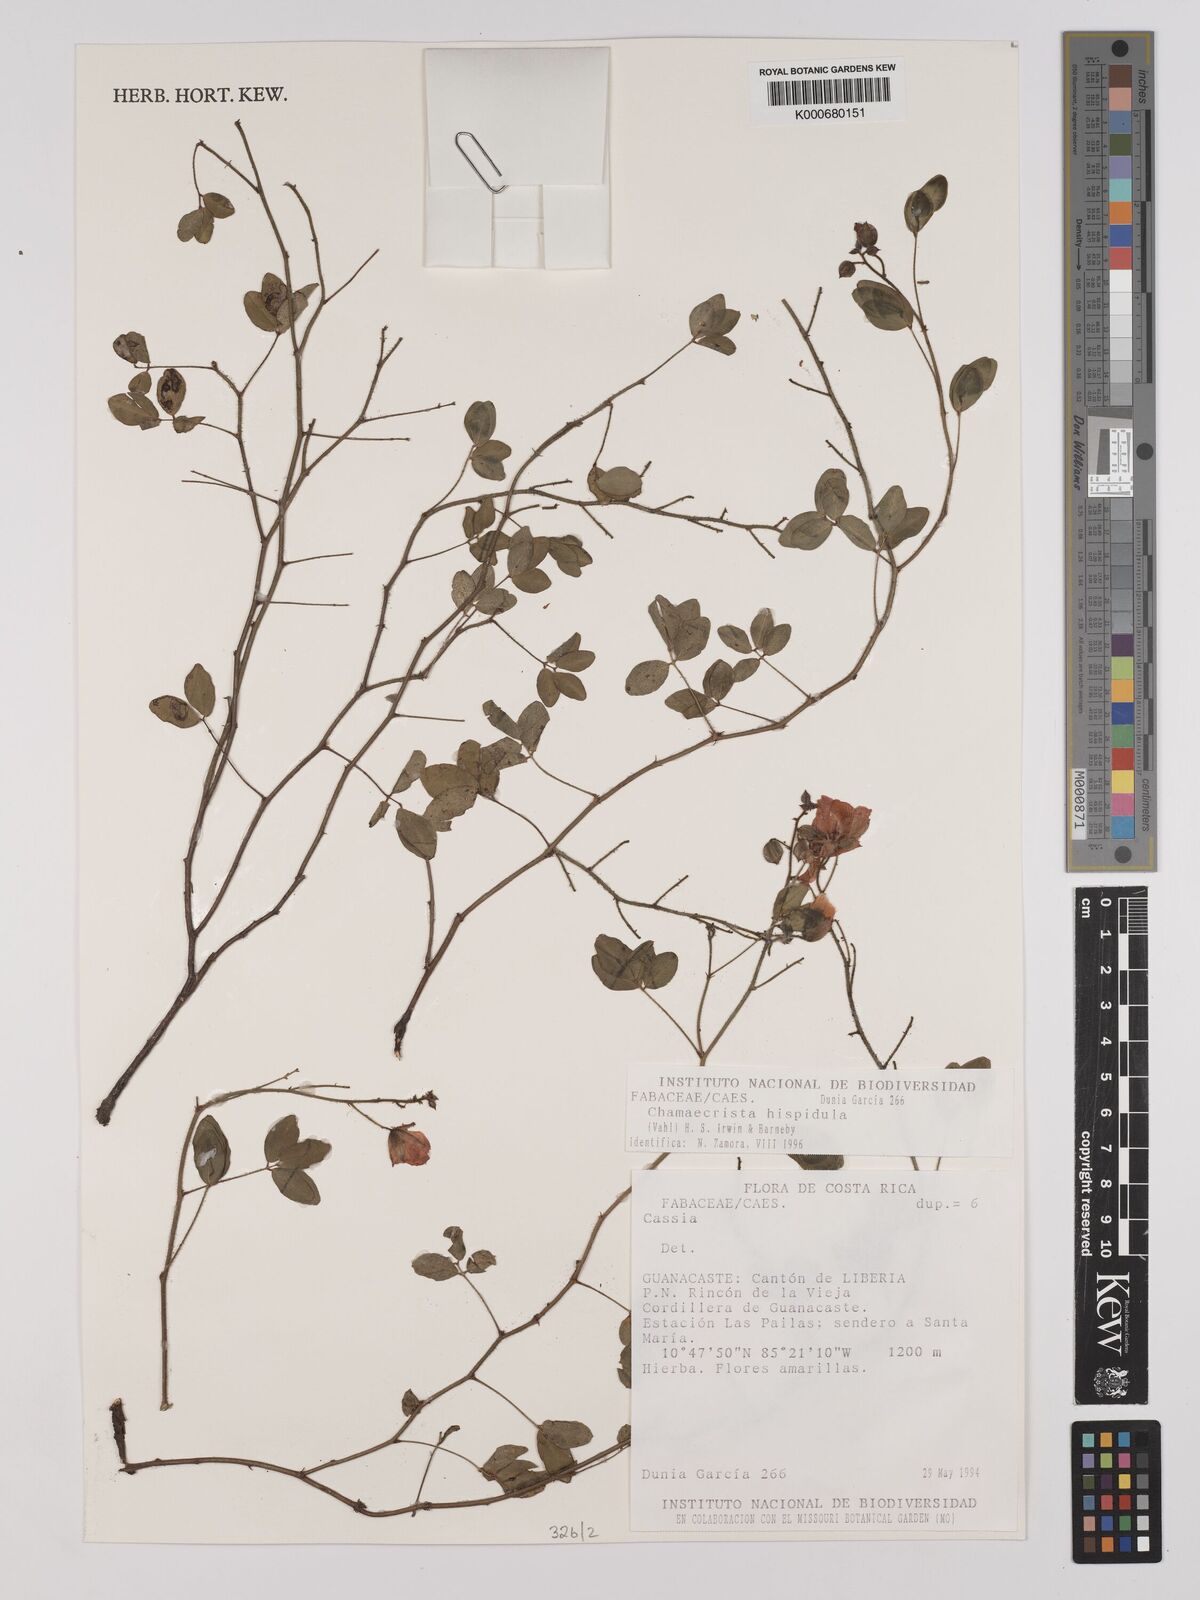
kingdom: Plantae
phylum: Tracheophyta
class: Magnoliopsida
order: Fabales
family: Fabaceae
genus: Chamaecrista
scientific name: Chamaecrista hispidula
